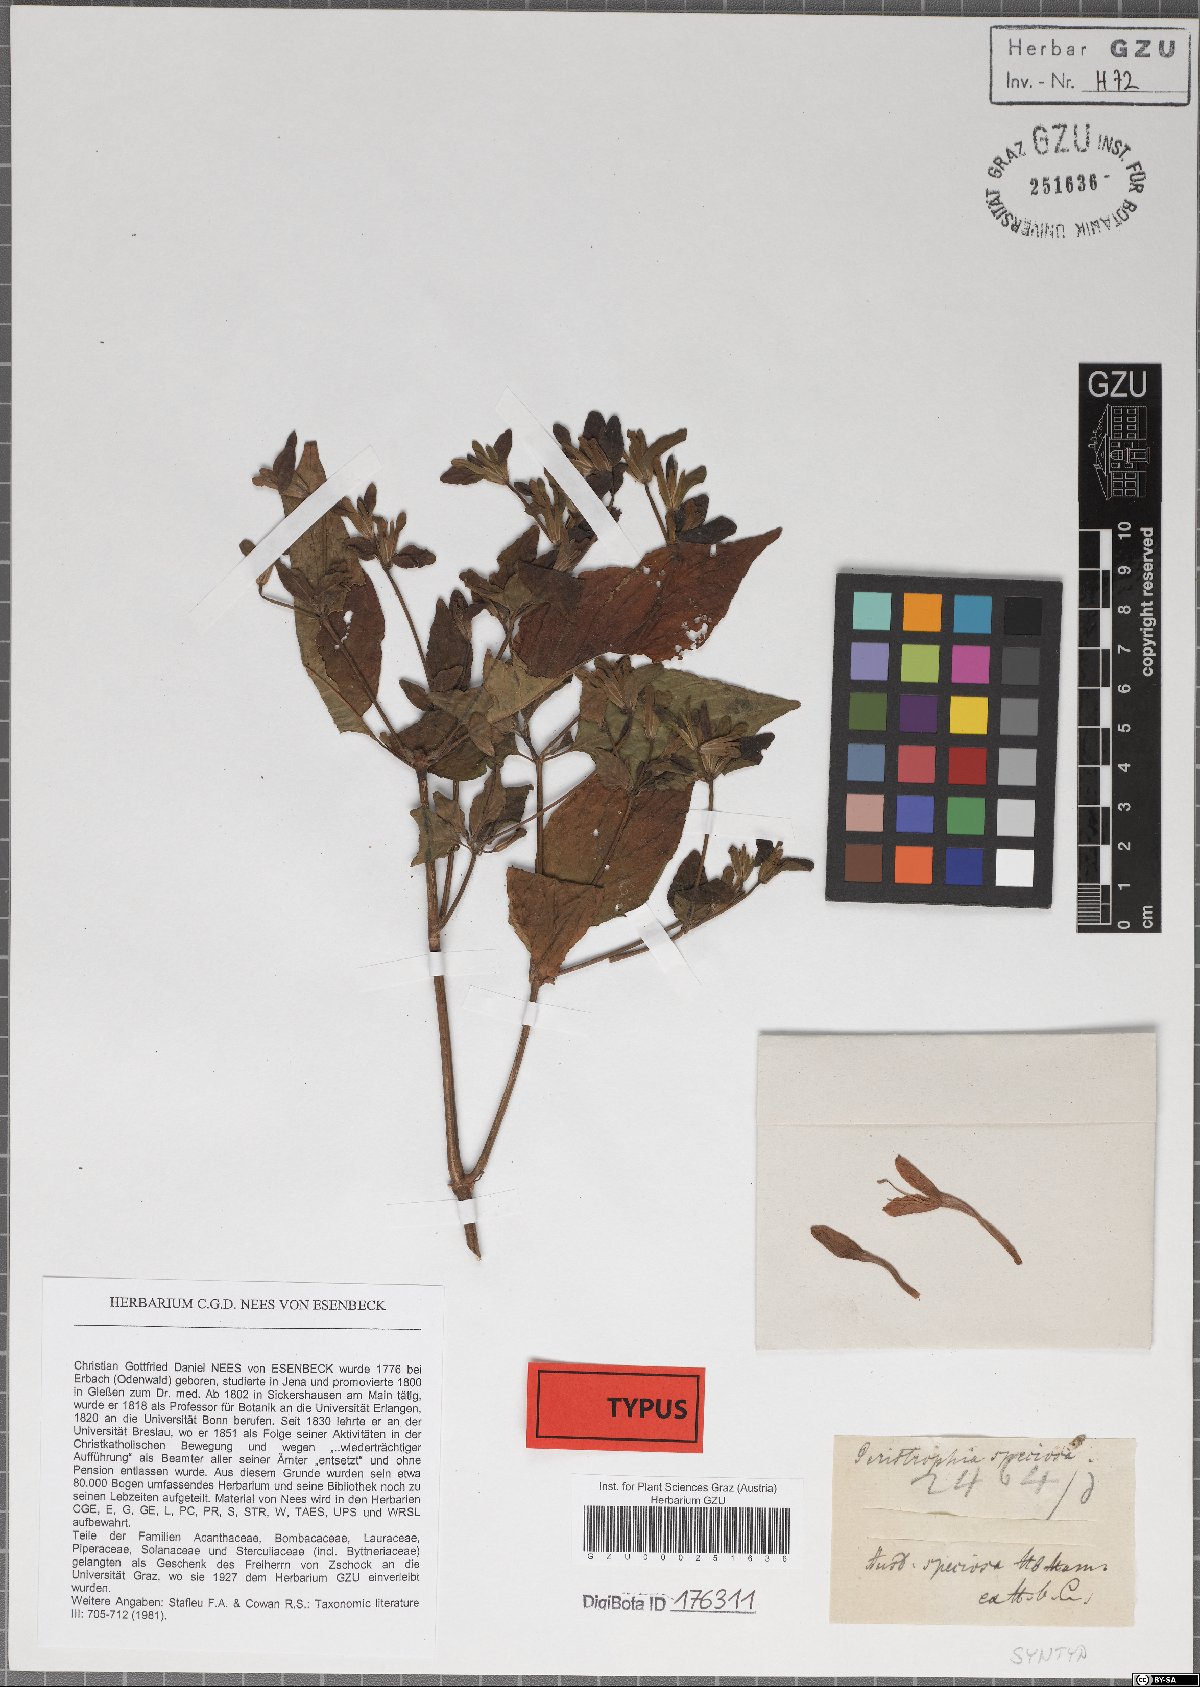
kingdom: Plantae
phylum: Tracheophyta
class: Magnoliopsida
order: Lamiales
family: Acanthaceae
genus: Dicliptera
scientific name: Dicliptera raui
